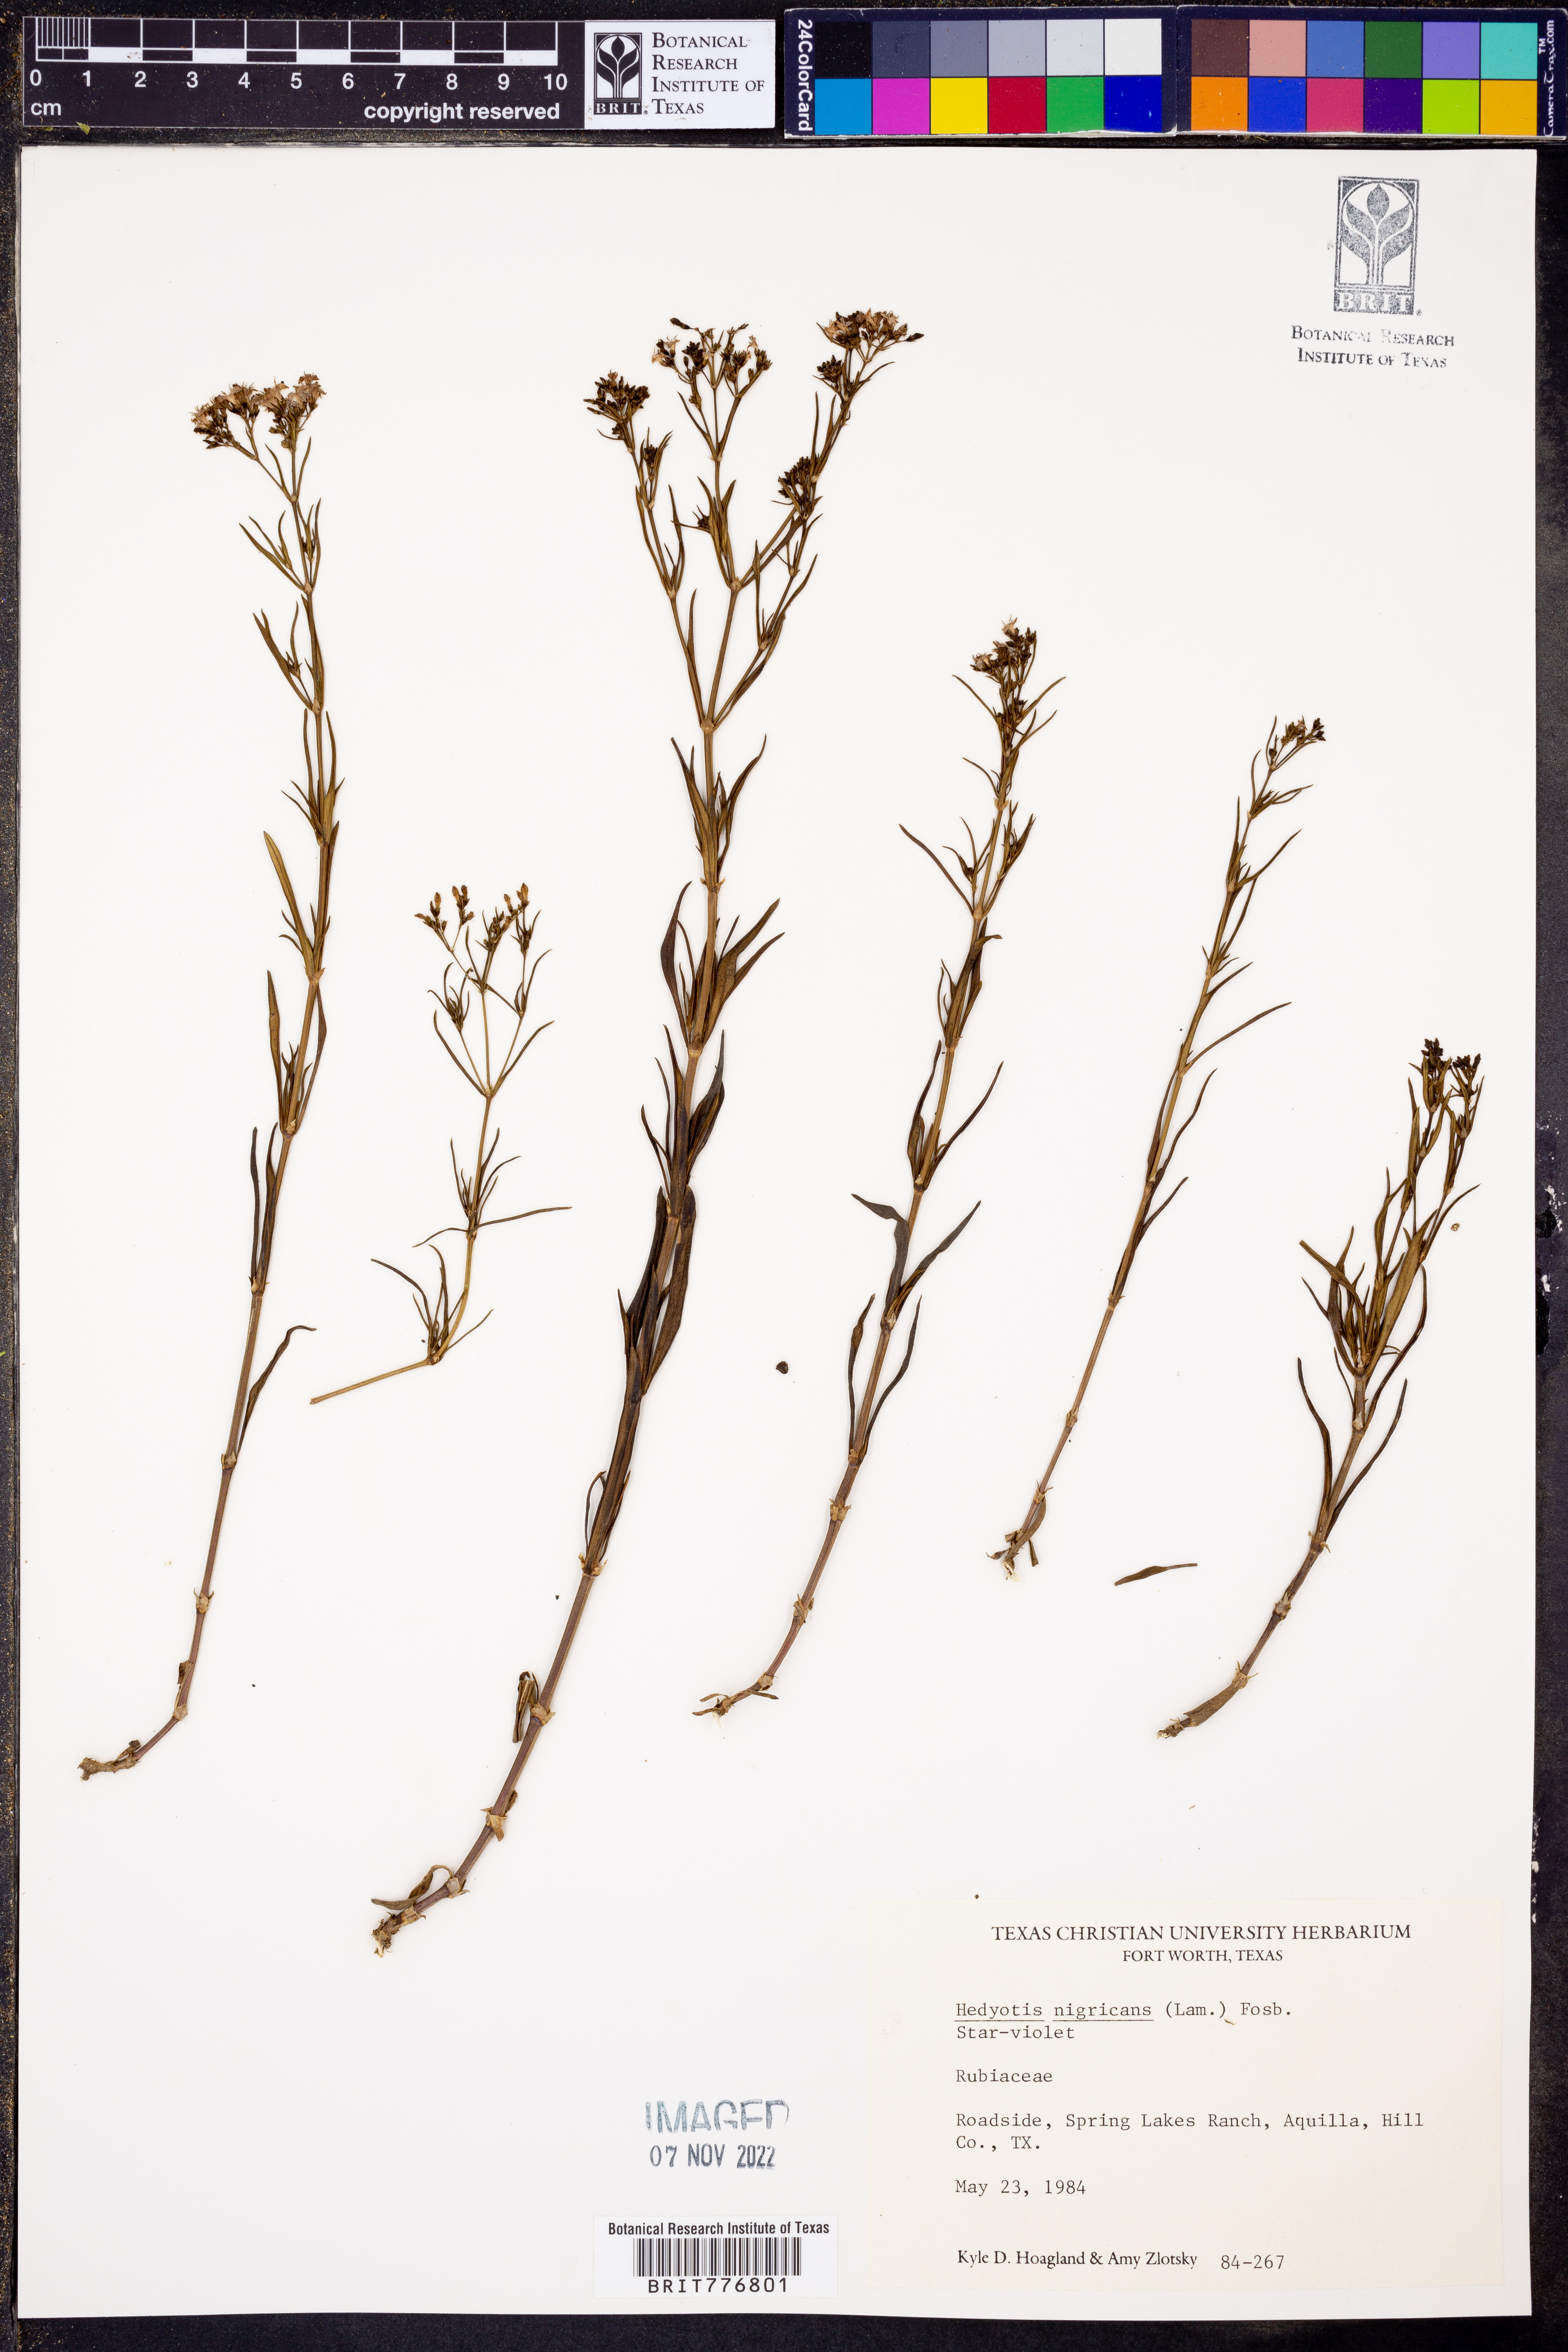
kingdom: Plantae
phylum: Tracheophyta
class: Magnoliopsida
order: Gentianales
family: Rubiaceae
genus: Stenaria
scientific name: Stenaria nigricans
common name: Diamondflowers
